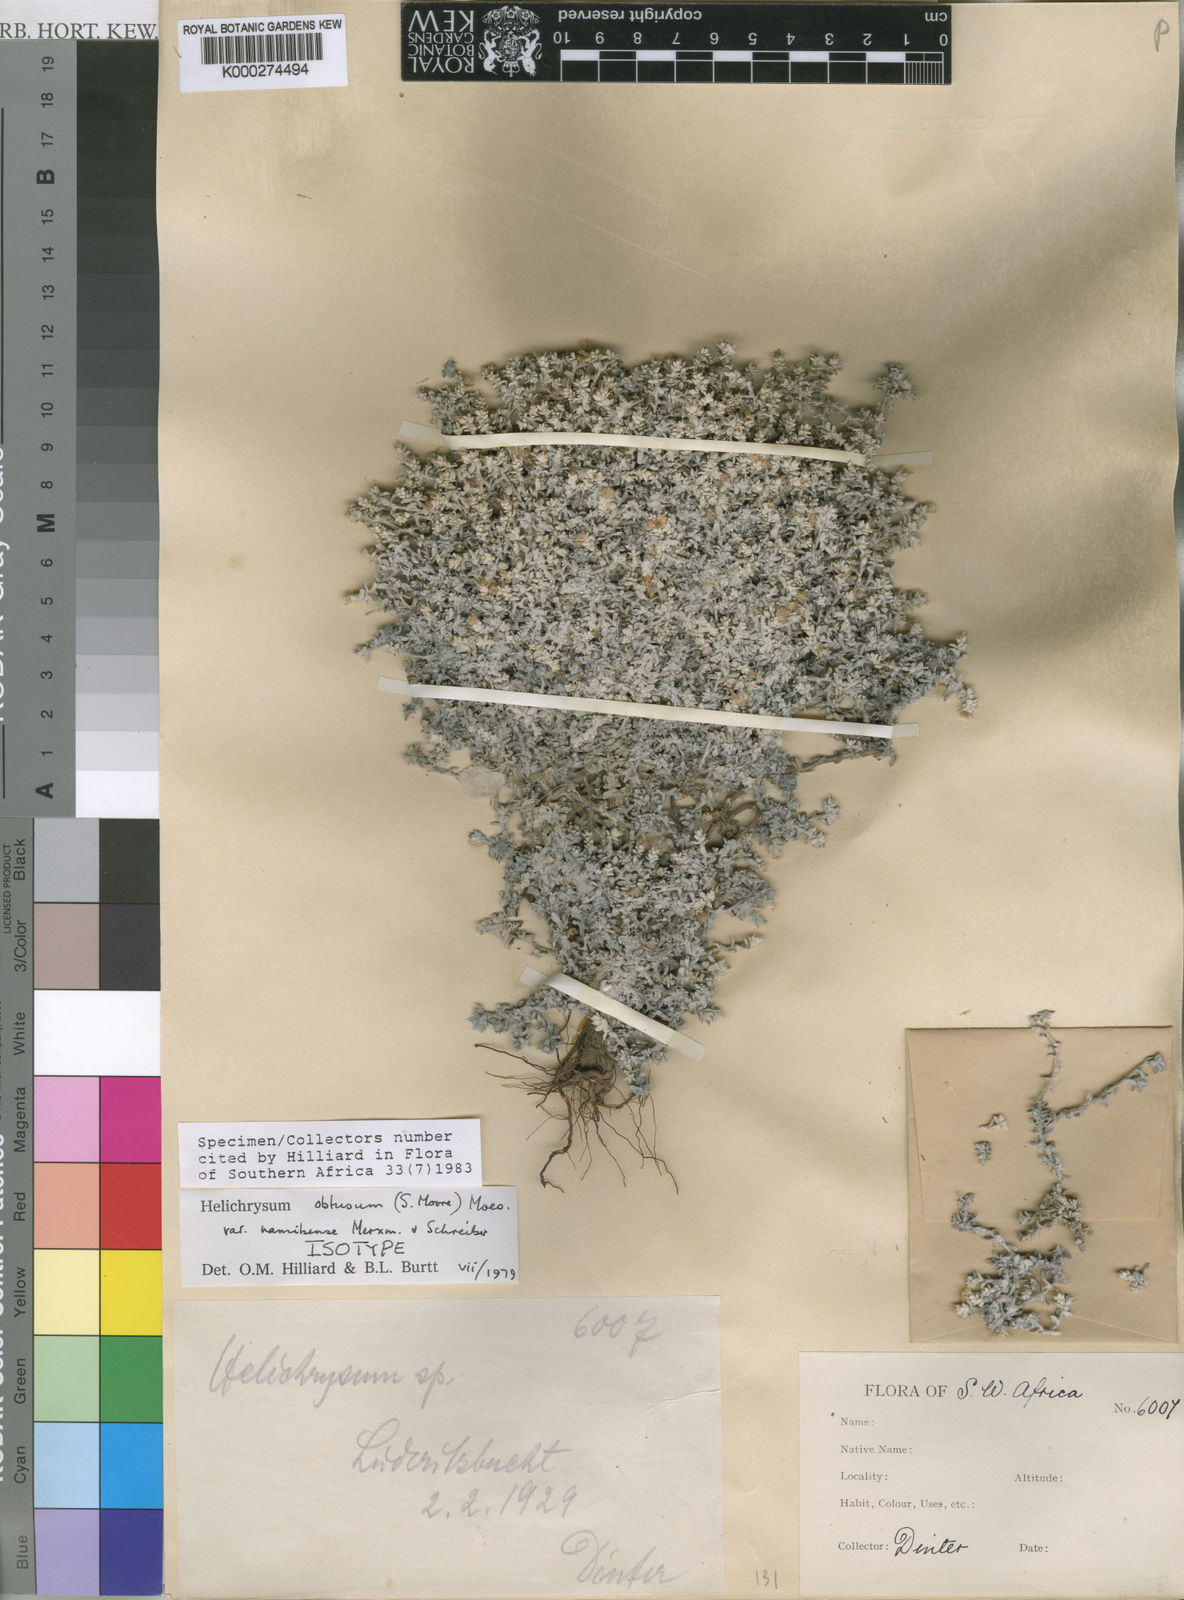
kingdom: Plantae
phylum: Tracheophyta
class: Magnoliopsida
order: Asterales
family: Asteraceae
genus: Helichrysum
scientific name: Helichrysum obtusum
